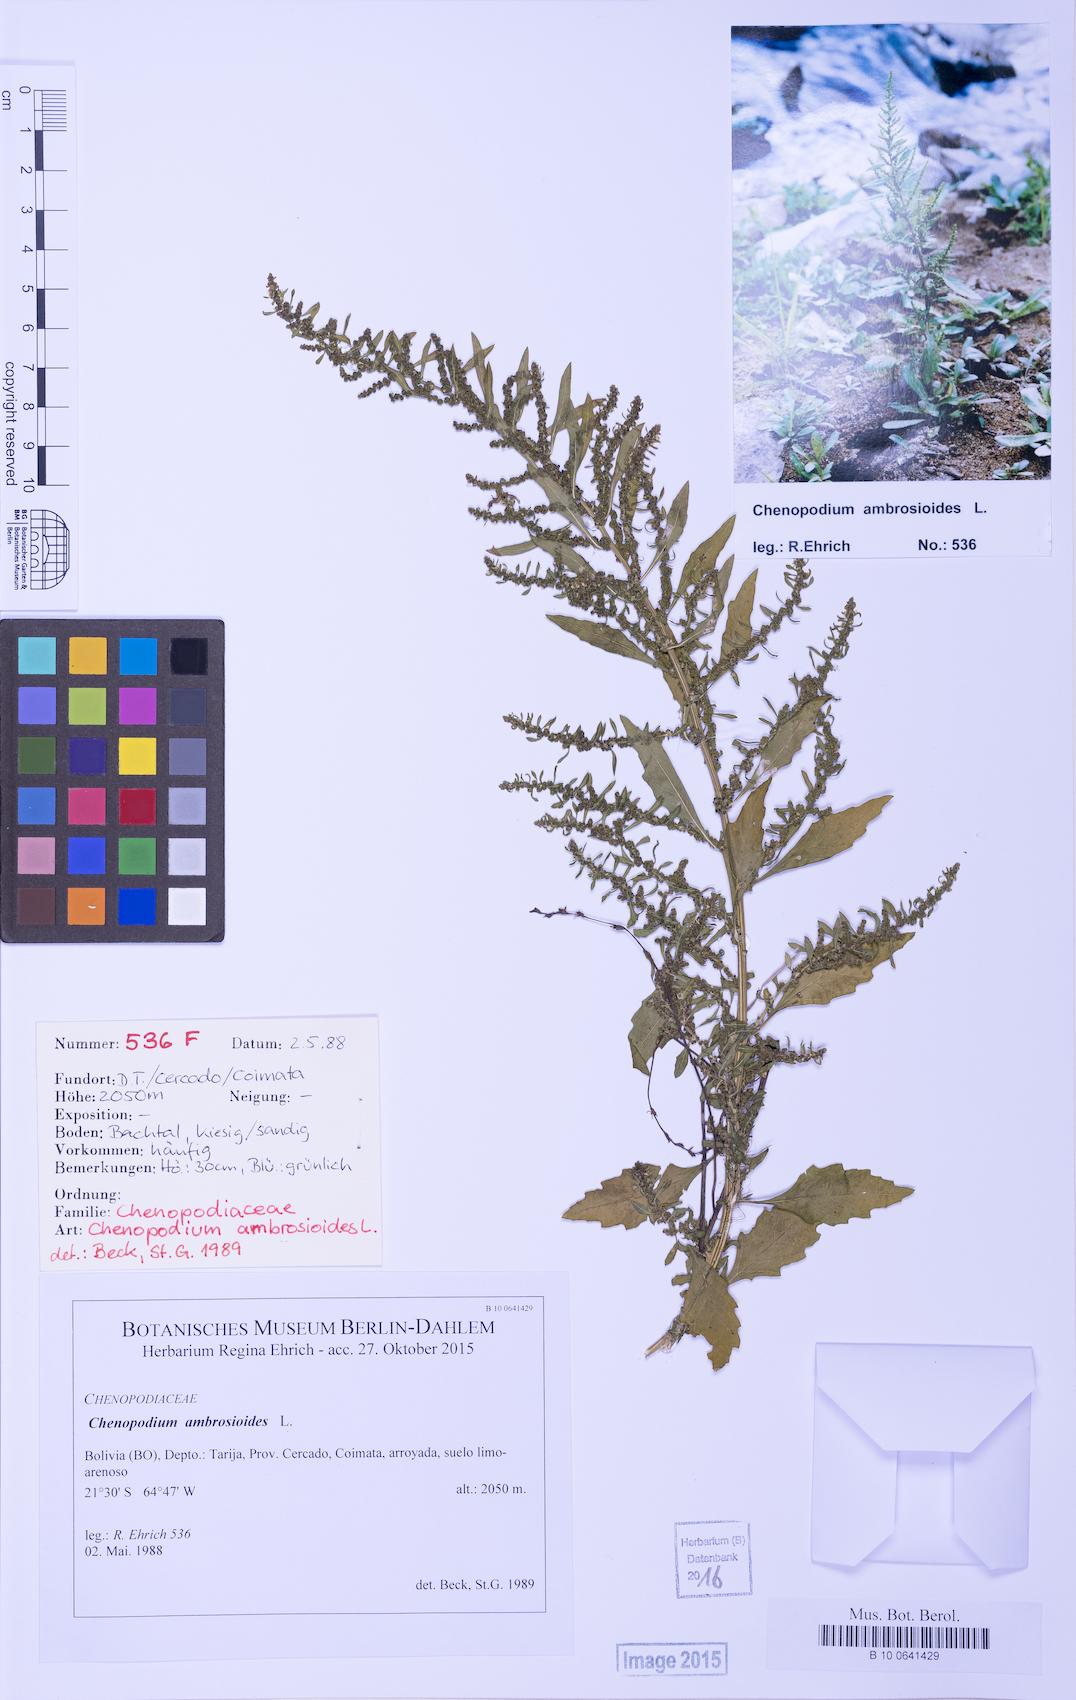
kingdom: Plantae
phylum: Tracheophyta
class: Magnoliopsida
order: Caryophyllales
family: Amaranthaceae
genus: Dysphania
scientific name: Dysphania ambrosioides
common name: Wormseed
